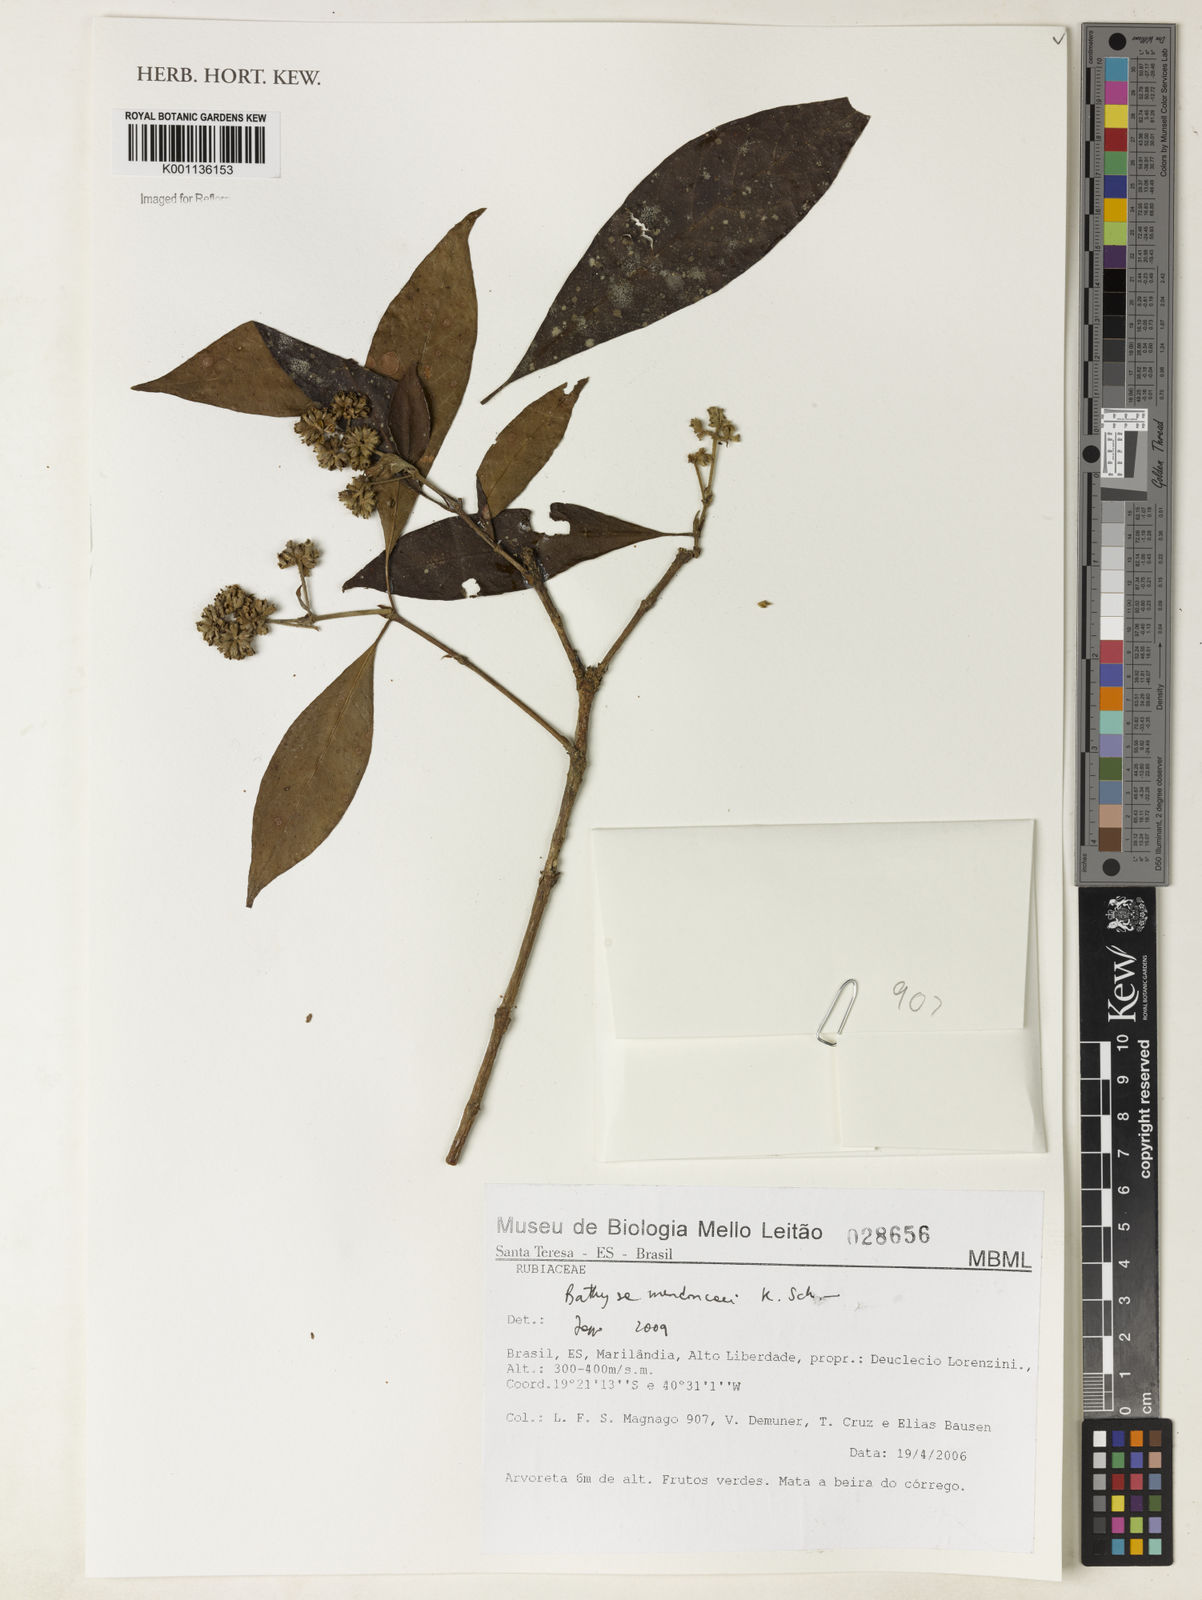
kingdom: Plantae
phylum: Tracheophyta
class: Magnoliopsida
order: Gentianales
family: Rubiaceae
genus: Bathysa
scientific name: Bathysa
